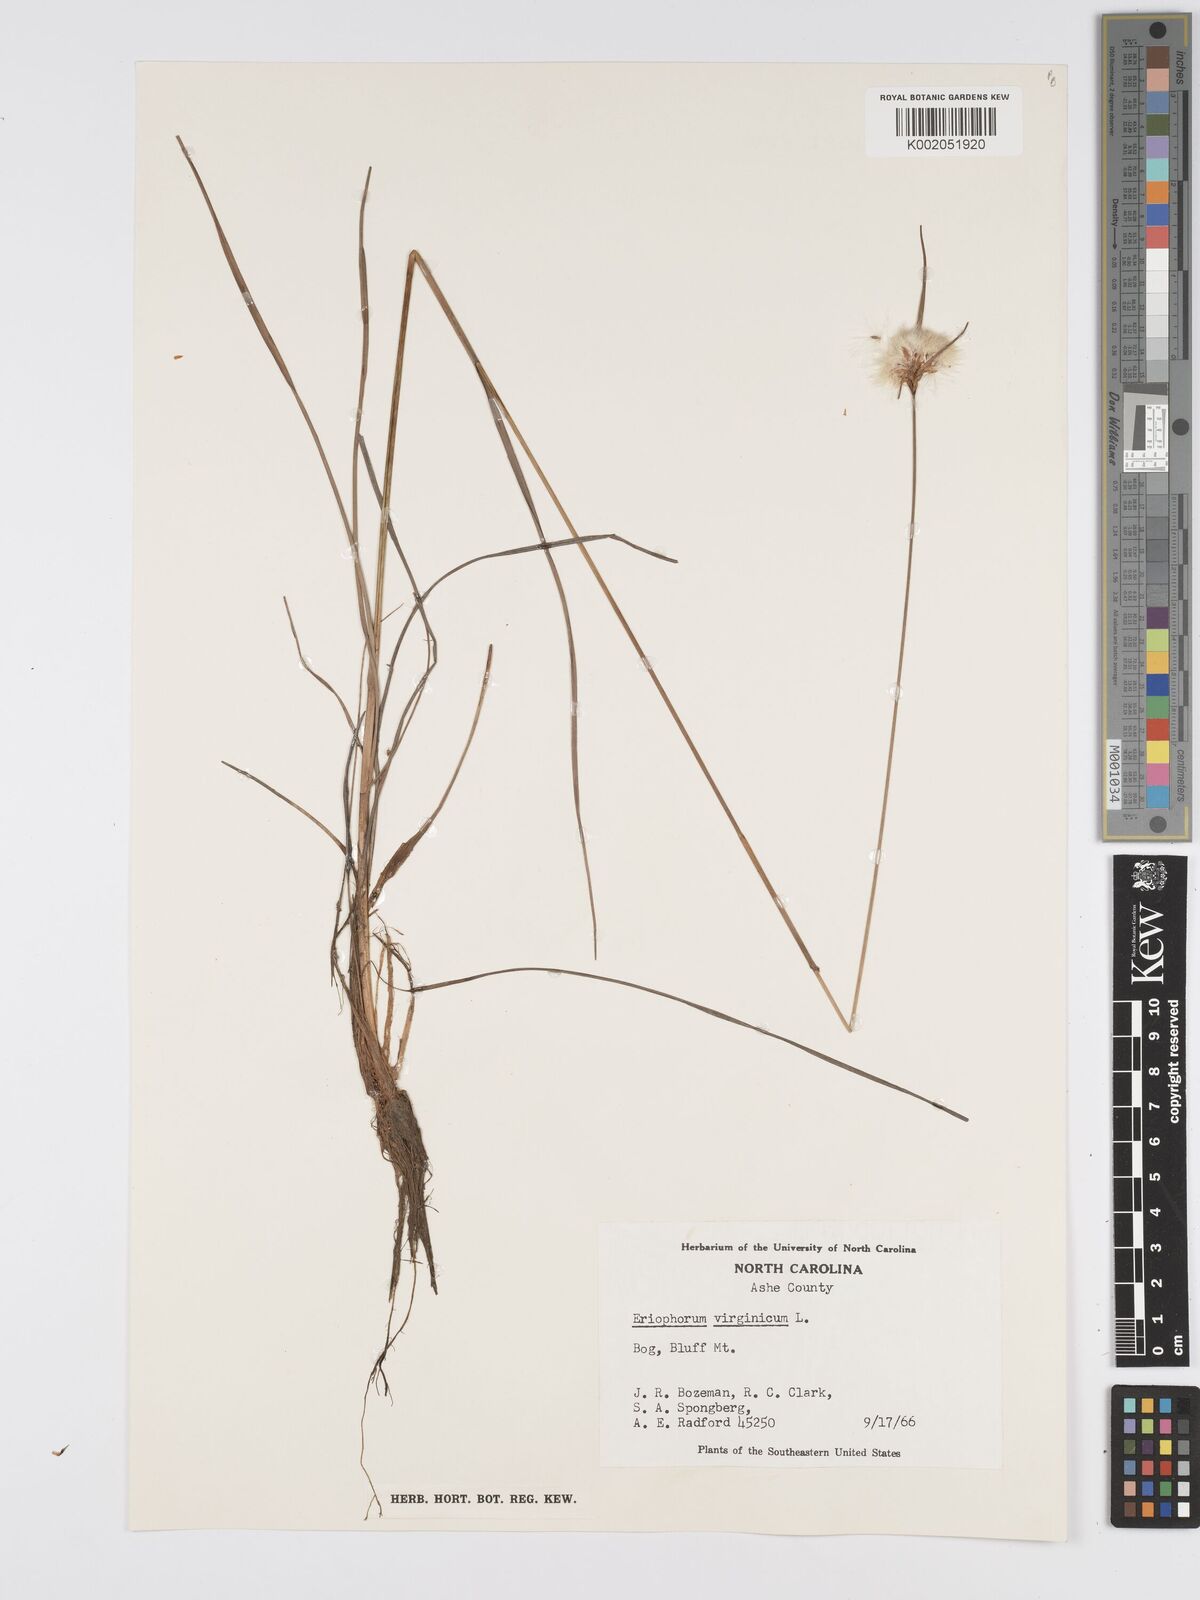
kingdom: Plantae
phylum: Tracheophyta
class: Liliopsida
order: Poales
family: Cyperaceae
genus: Eriophorum
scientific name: Eriophorum virginicum
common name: Tawny cottongrass
